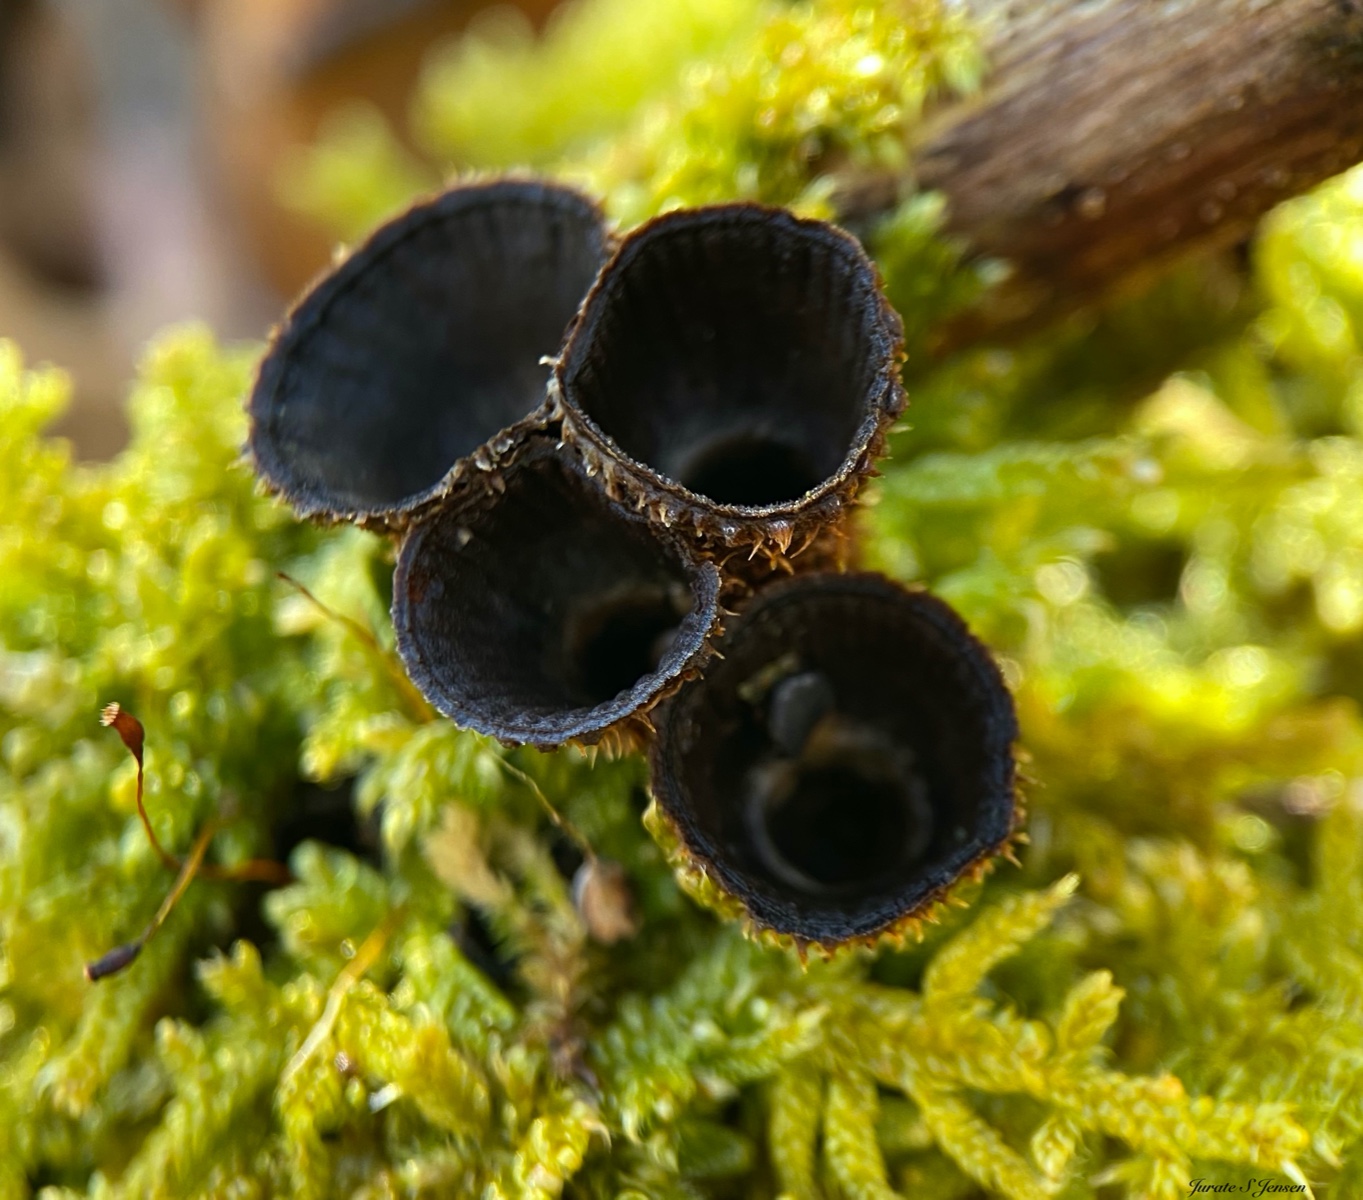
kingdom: Fungi
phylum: Basidiomycota
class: Agaricomycetes
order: Agaricales
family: Agaricaceae
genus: Cyathus
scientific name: Cyathus striatus
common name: stribet redesvamp
